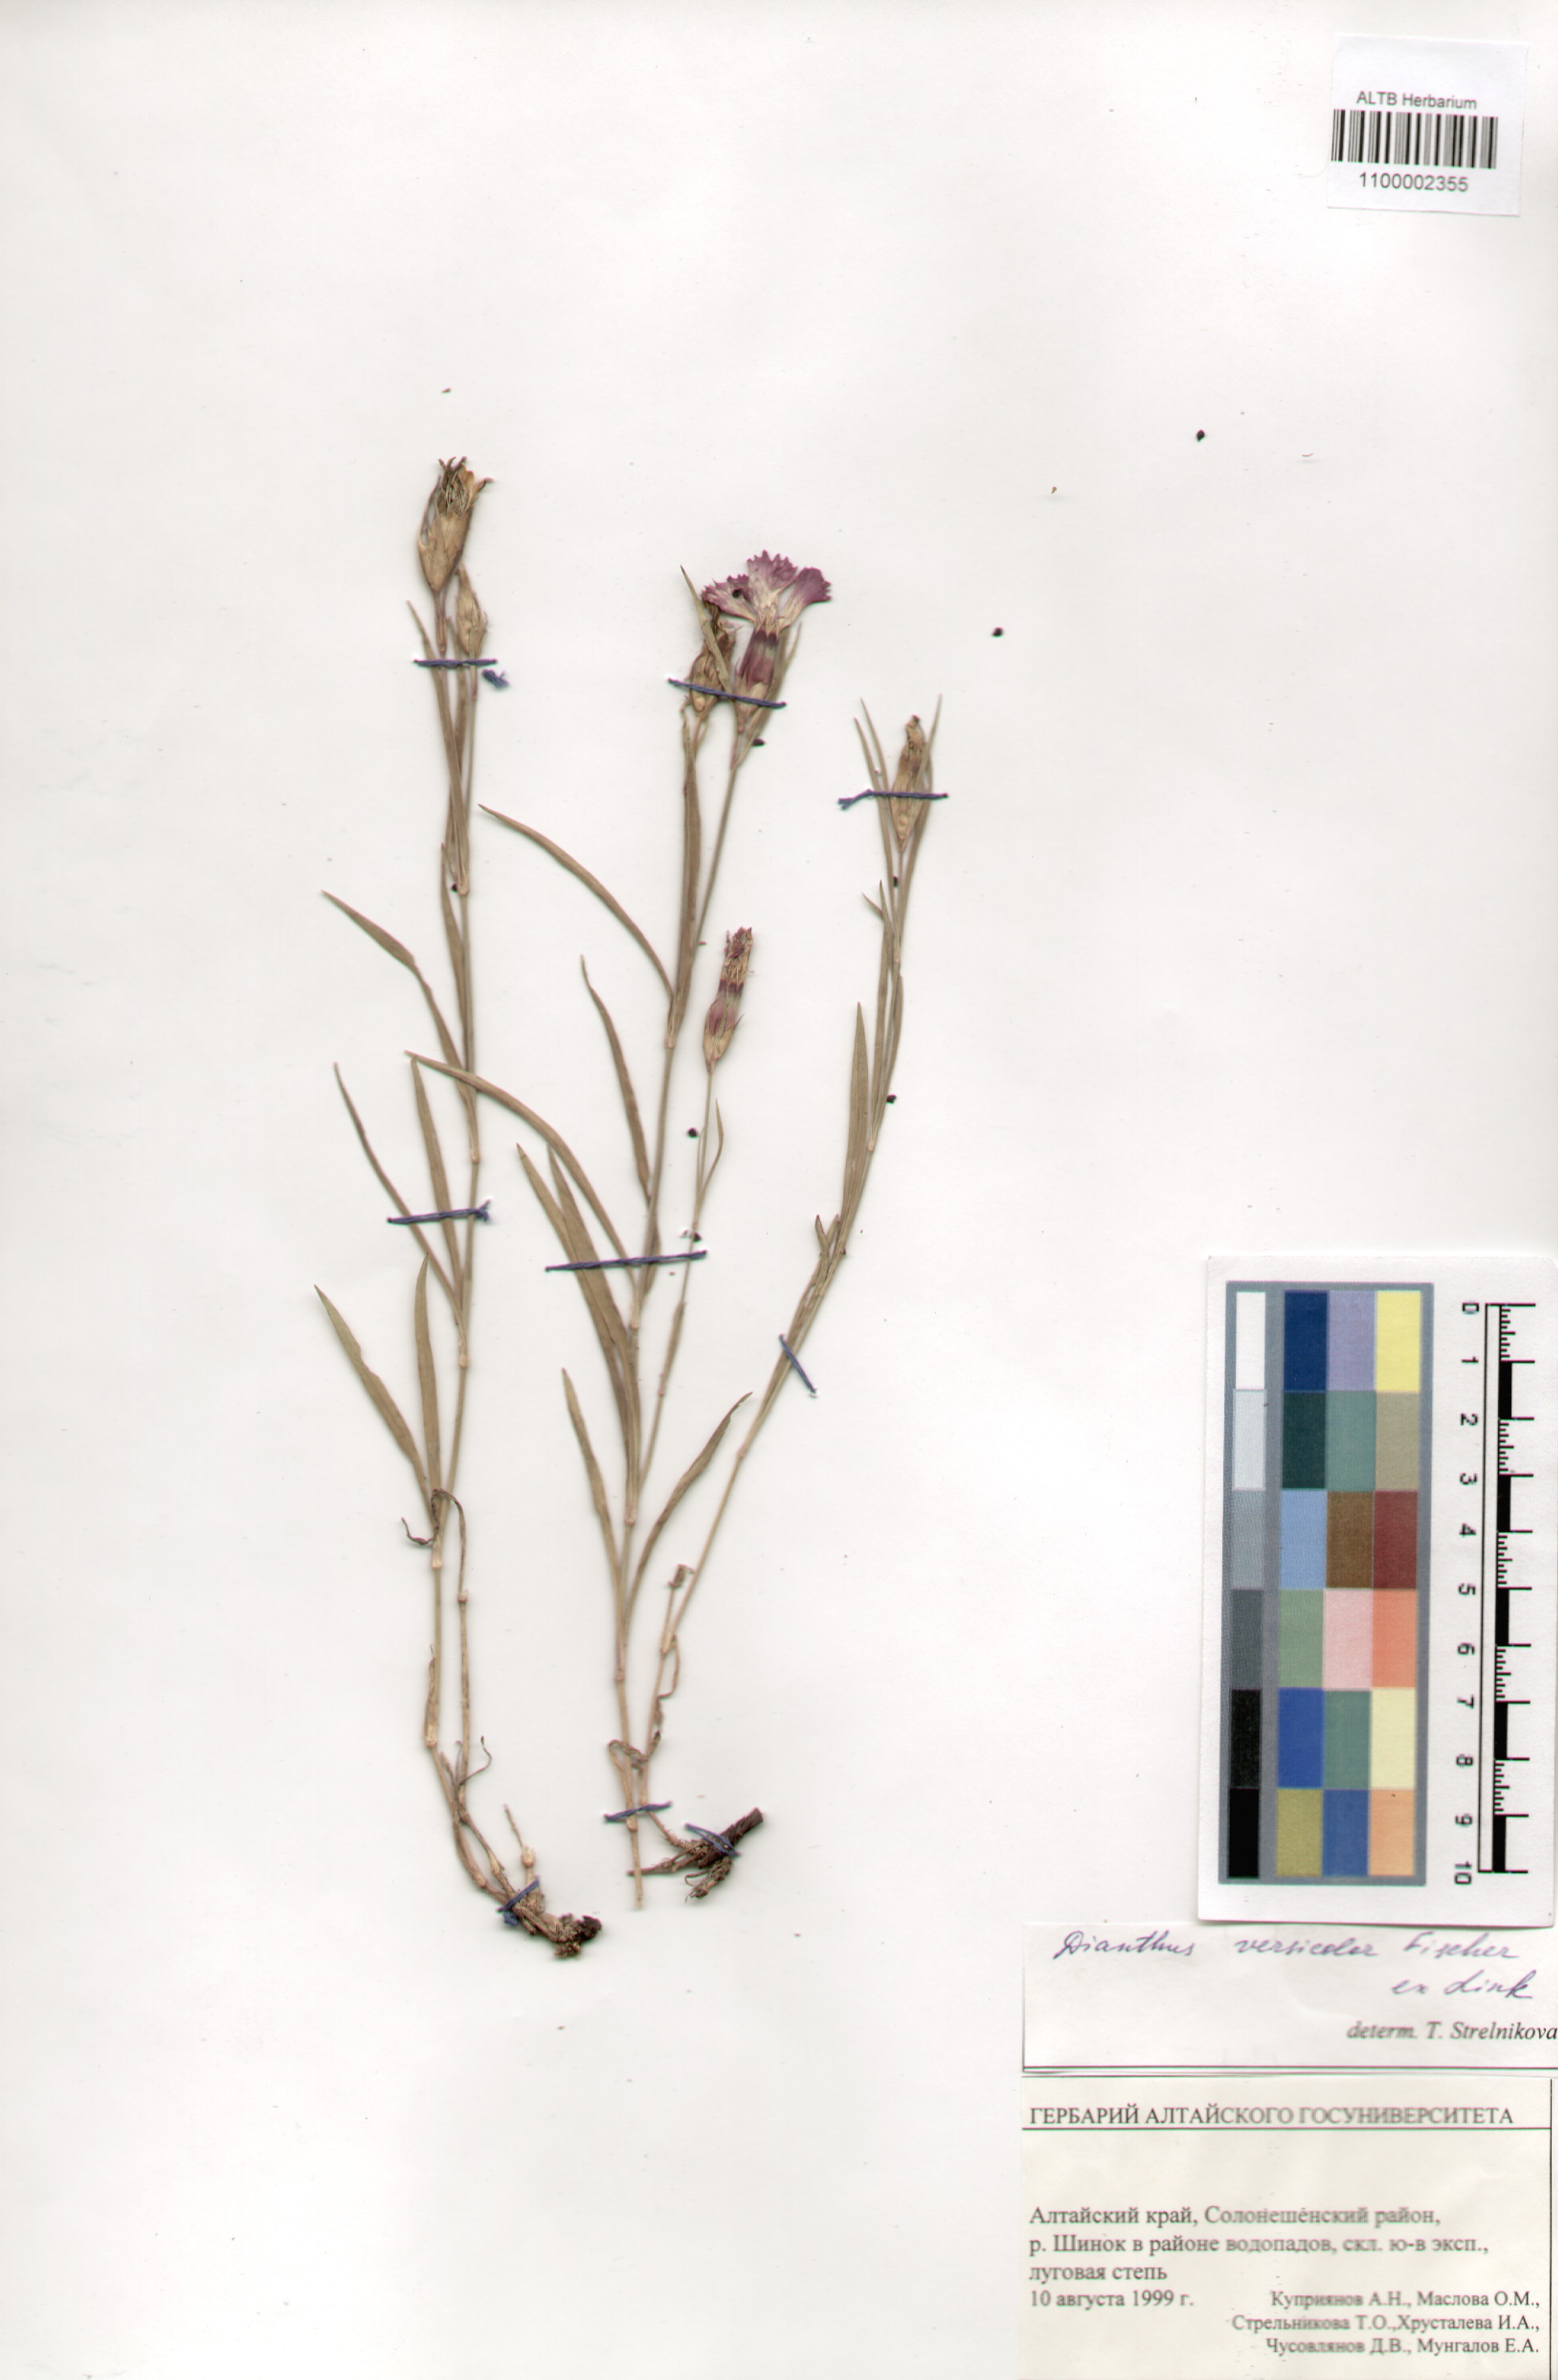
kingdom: Plantae
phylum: Tracheophyta
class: Magnoliopsida
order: Caryophyllales
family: Caryophyllaceae
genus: Dianthus
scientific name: Dianthus chinensis
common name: Rainbow pink
